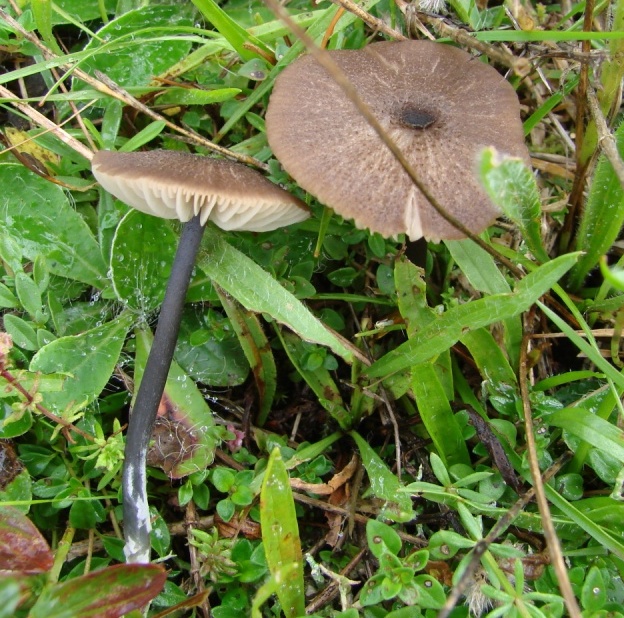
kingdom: Fungi
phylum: Basidiomycota
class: Agaricomycetes
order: Agaricales
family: Entolomataceae
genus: Entoloma
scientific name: Entoloma
